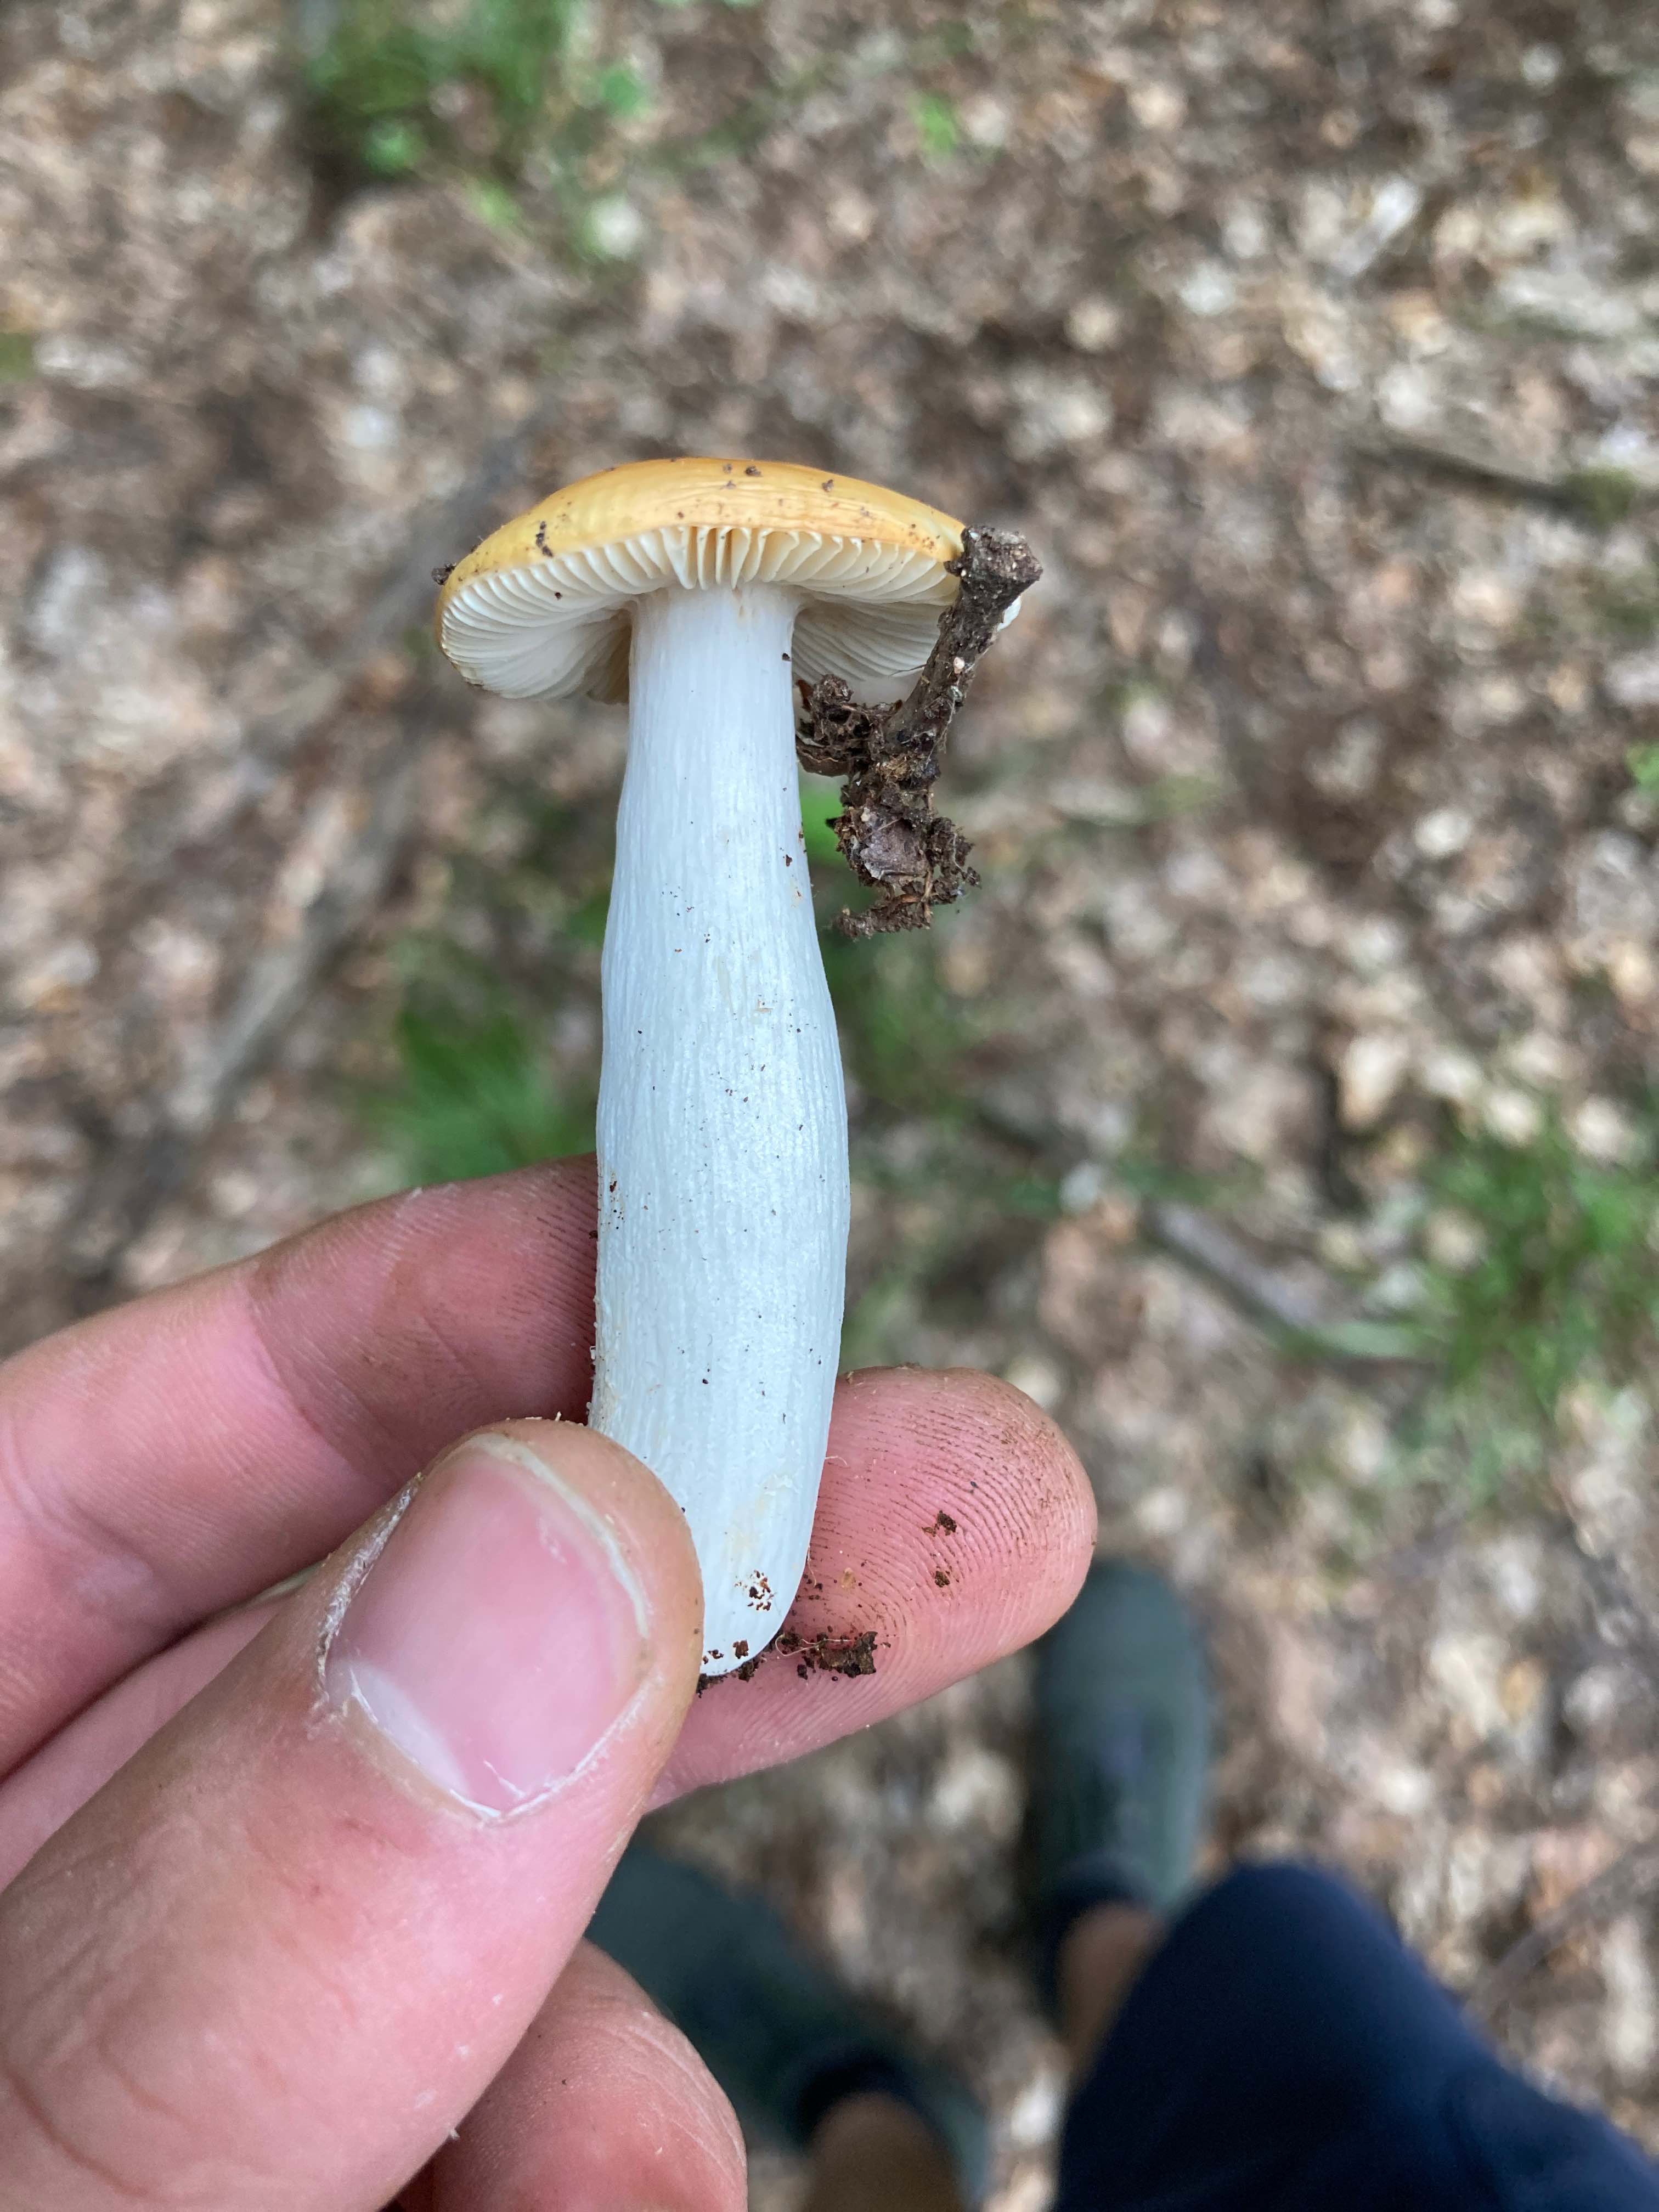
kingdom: Fungi
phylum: Basidiomycota
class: Agaricomycetes
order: Russulales
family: Russulaceae
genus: Russula
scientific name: Russula
